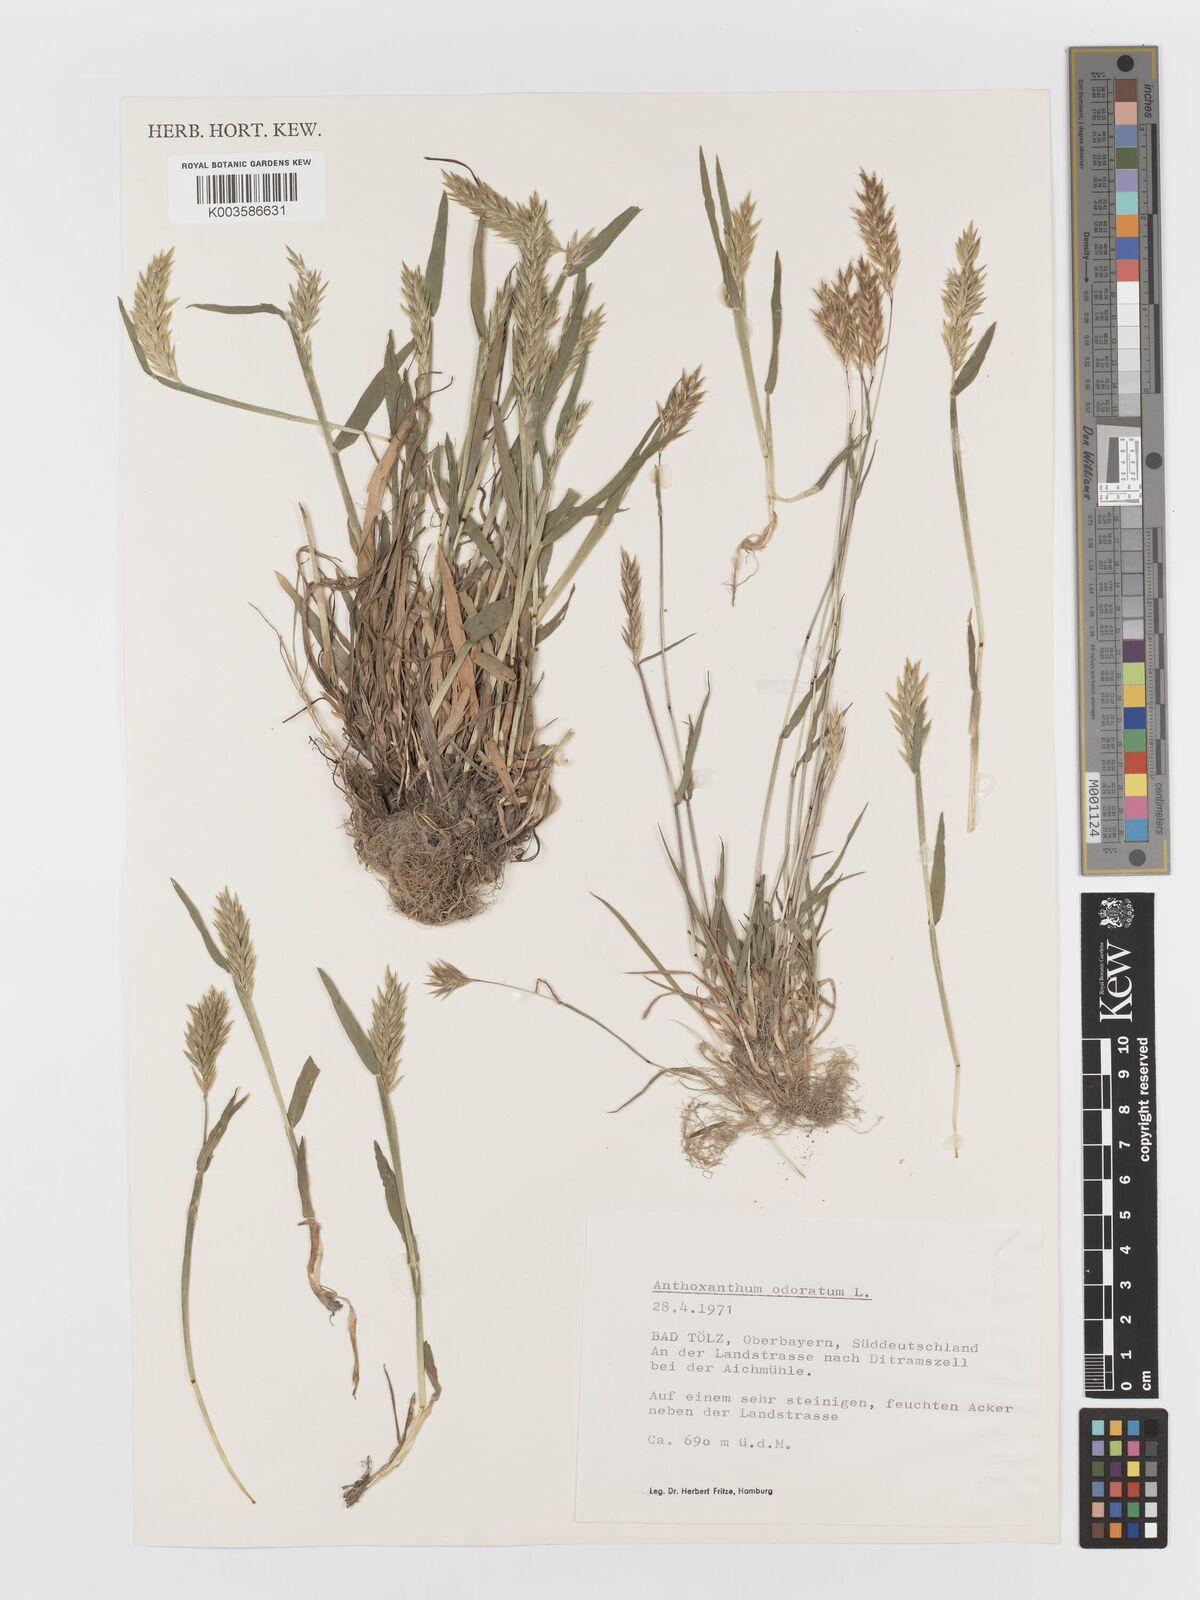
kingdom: Plantae
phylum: Tracheophyta
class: Liliopsida
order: Poales
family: Poaceae
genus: Anthoxanthum
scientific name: Anthoxanthum odoratum
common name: Sweet vernalgrass
